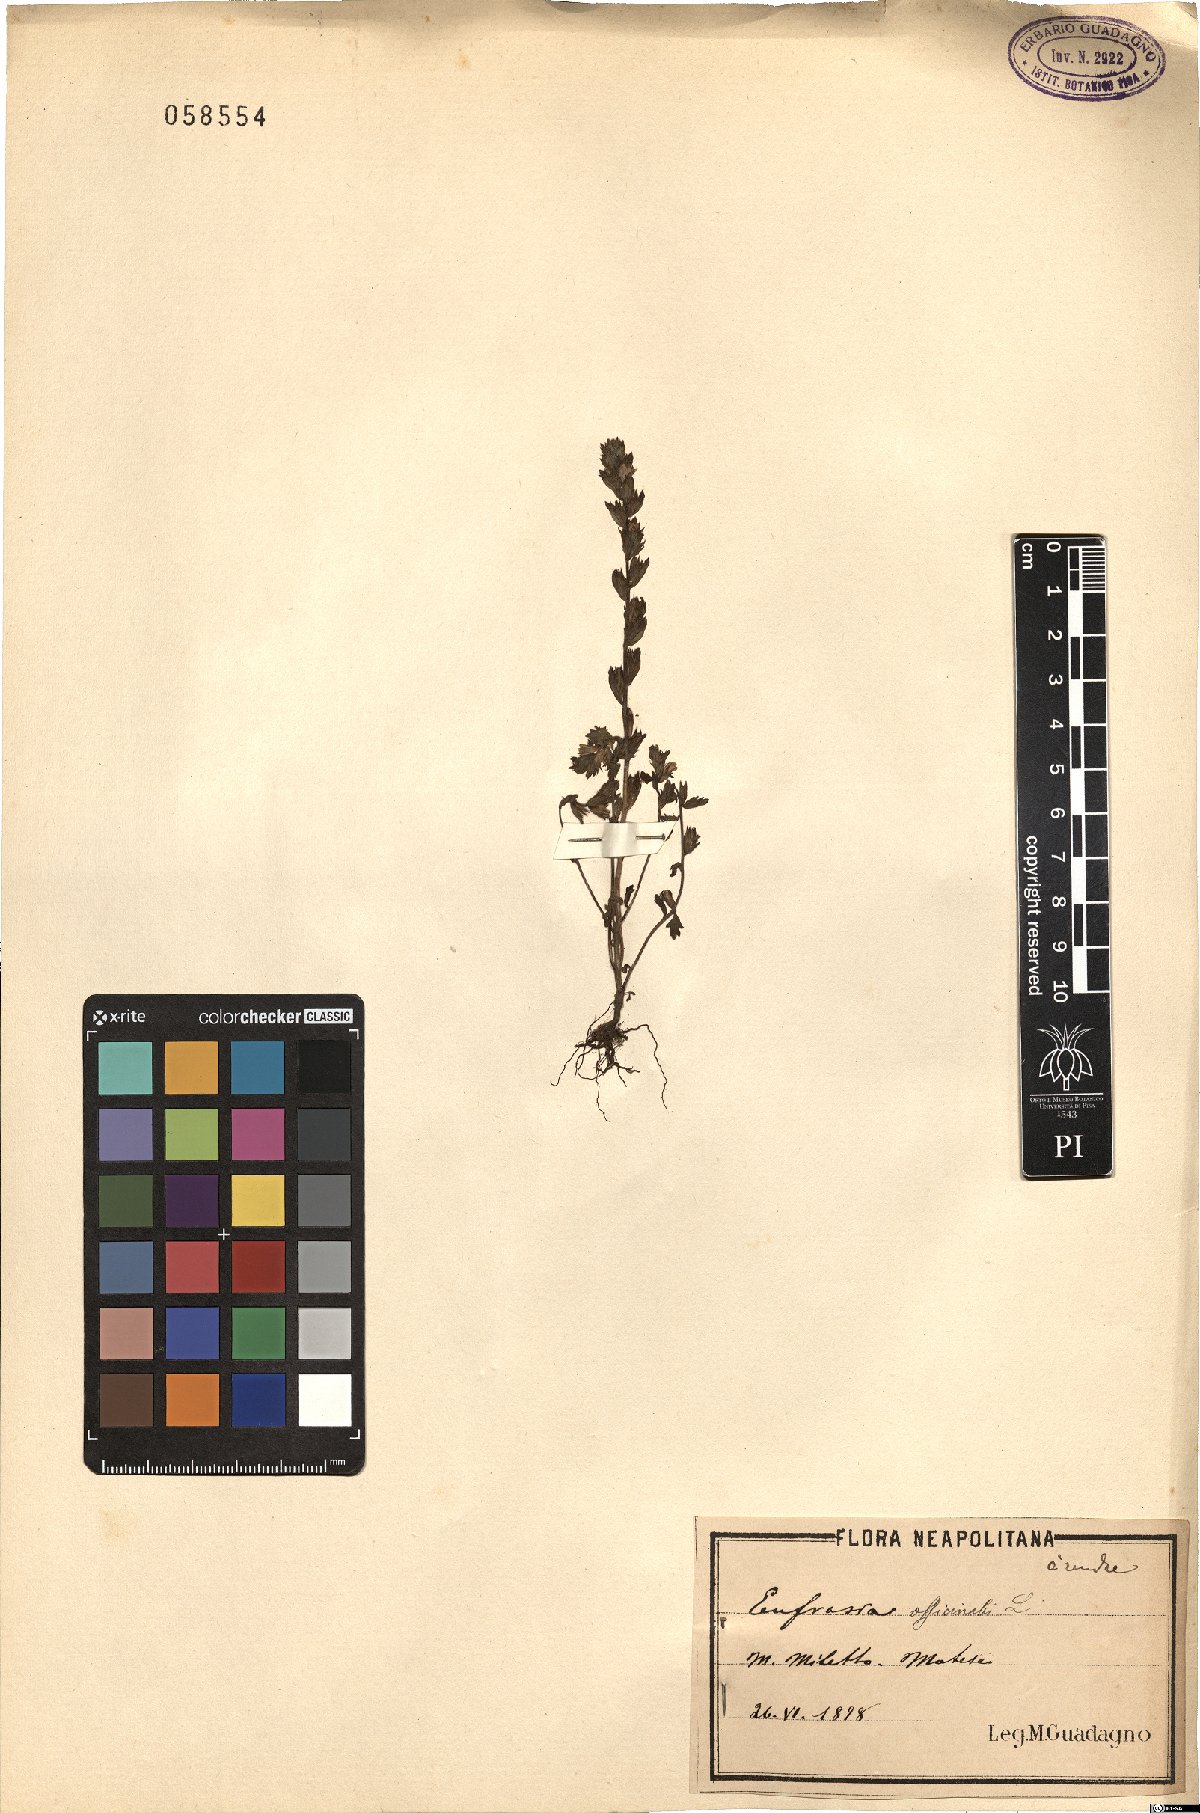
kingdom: Plantae
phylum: Tracheophyta
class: Magnoliopsida
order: Lamiales
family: Orobanchaceae
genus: Euphrasia
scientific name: Euphrasia officinalis
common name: Eyebright
